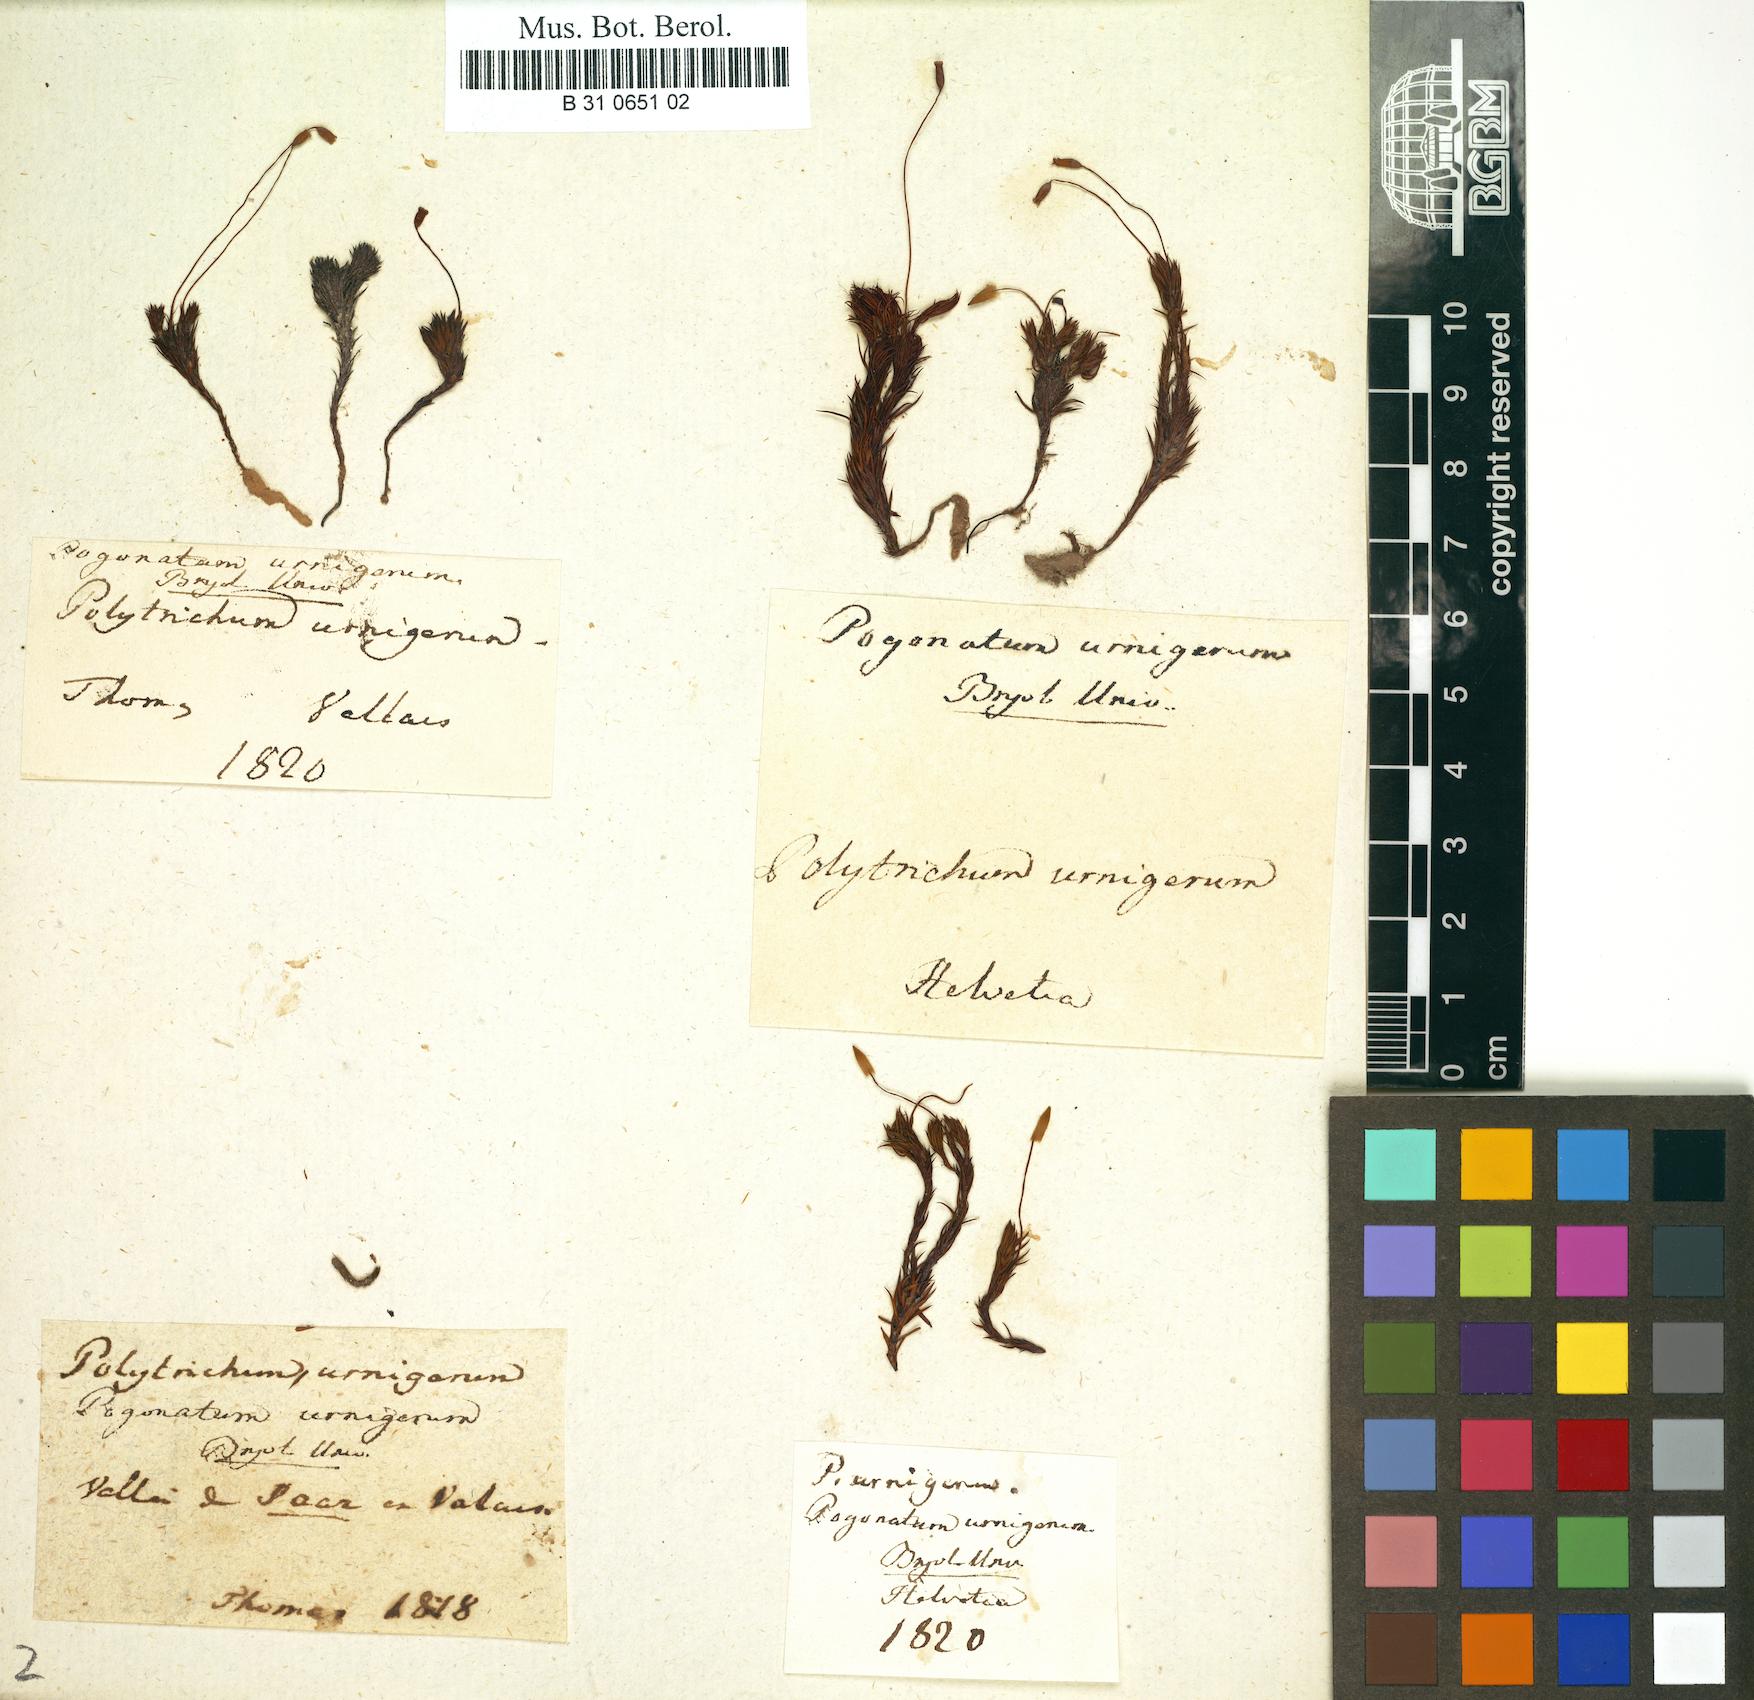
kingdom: Plantae
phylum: Bryophyta
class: Polytrichopsida
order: Polytrichales
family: Polytrichaceae
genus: Pogonatum
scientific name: Pogonatum
